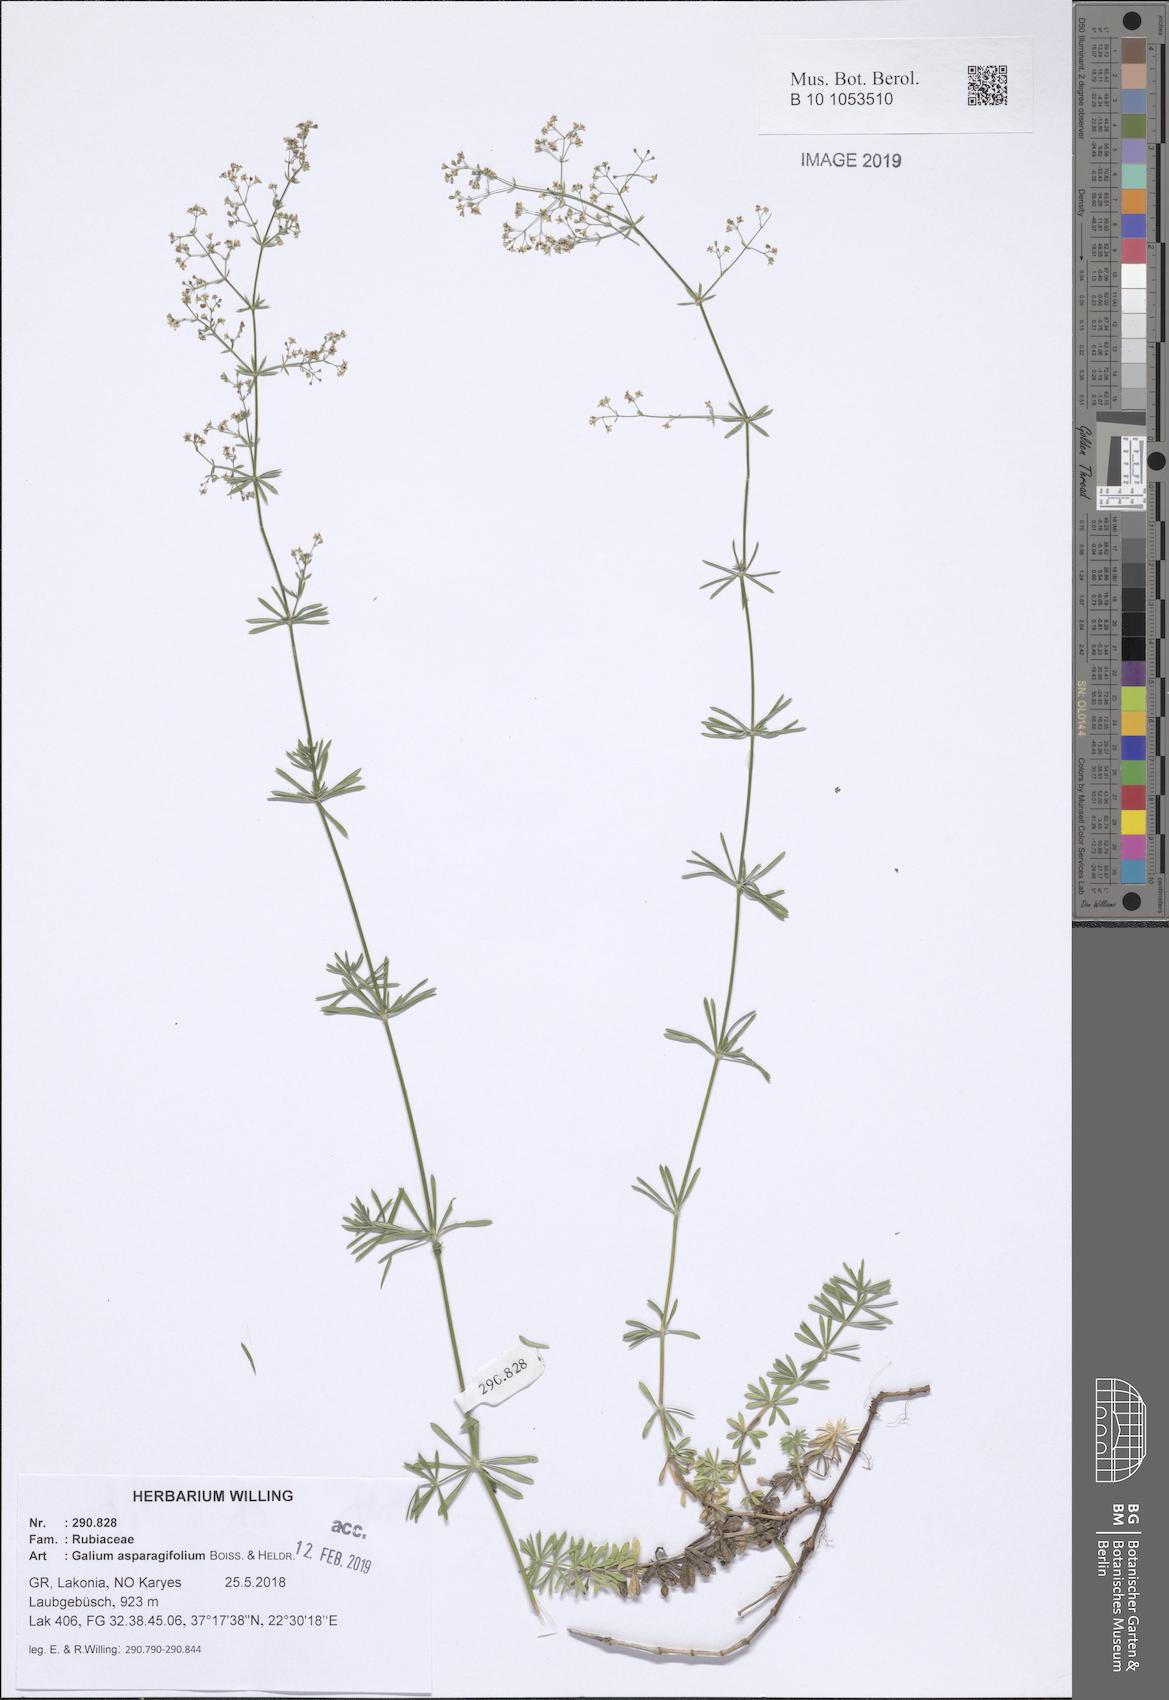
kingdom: Plantae
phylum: Tracheophyta
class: Magnoliopsida
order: Gentianales
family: Rubiaceae
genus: Galium
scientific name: Galium asparagifolium
